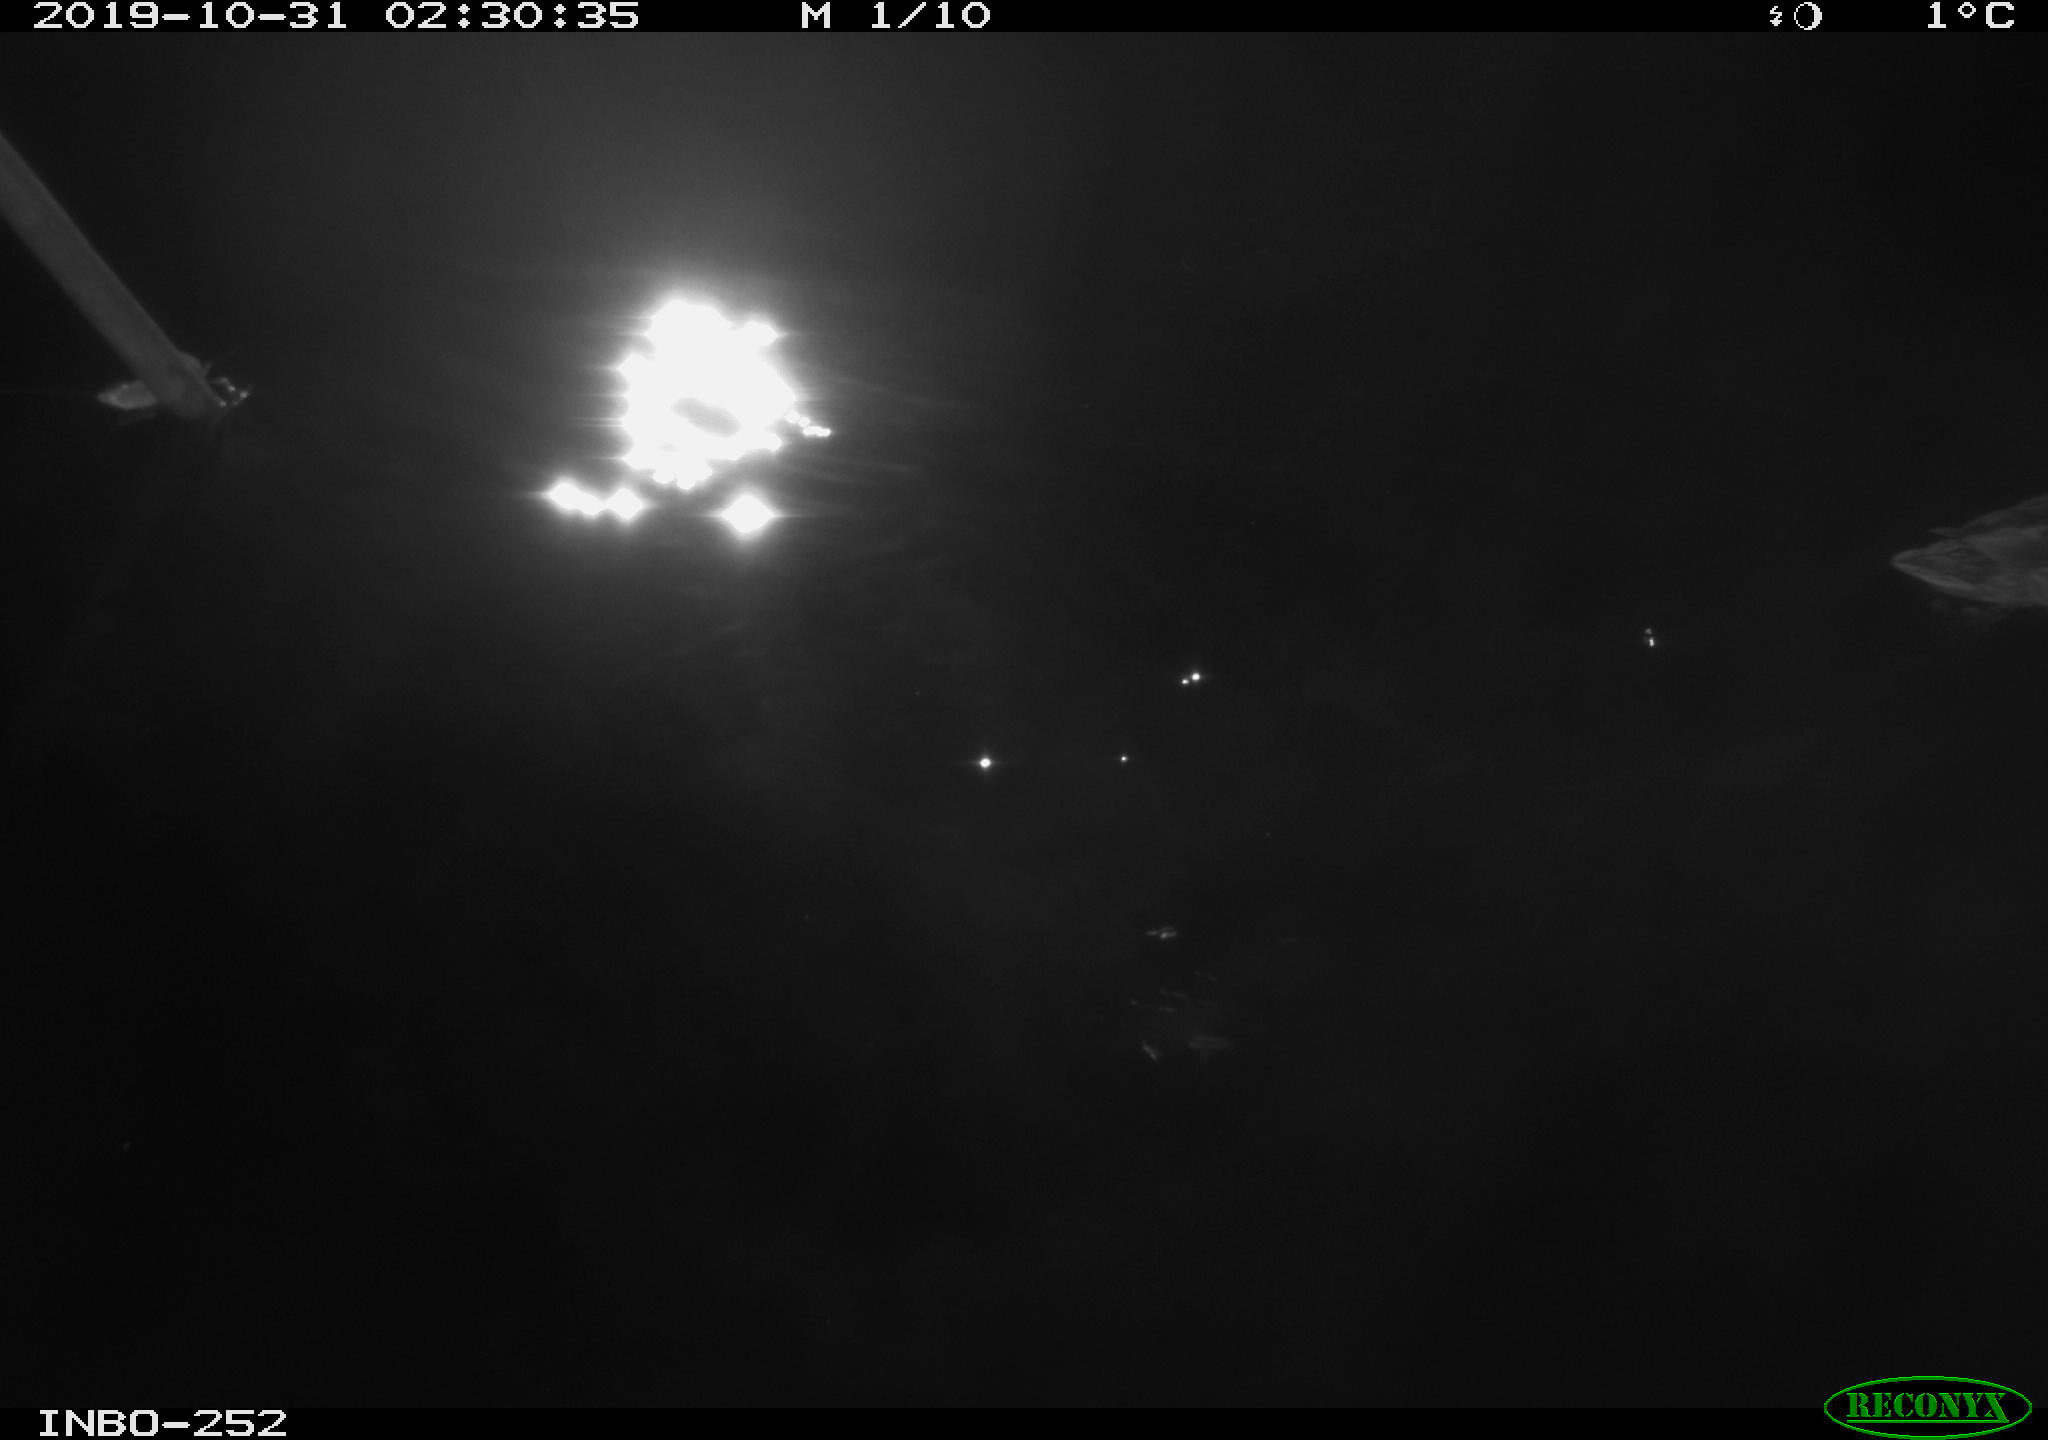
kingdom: Animalia
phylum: Chordata
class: Aves
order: Anseriformes
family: Anatidae
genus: Anas
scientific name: Anas platyrhynchos
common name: Mallard
